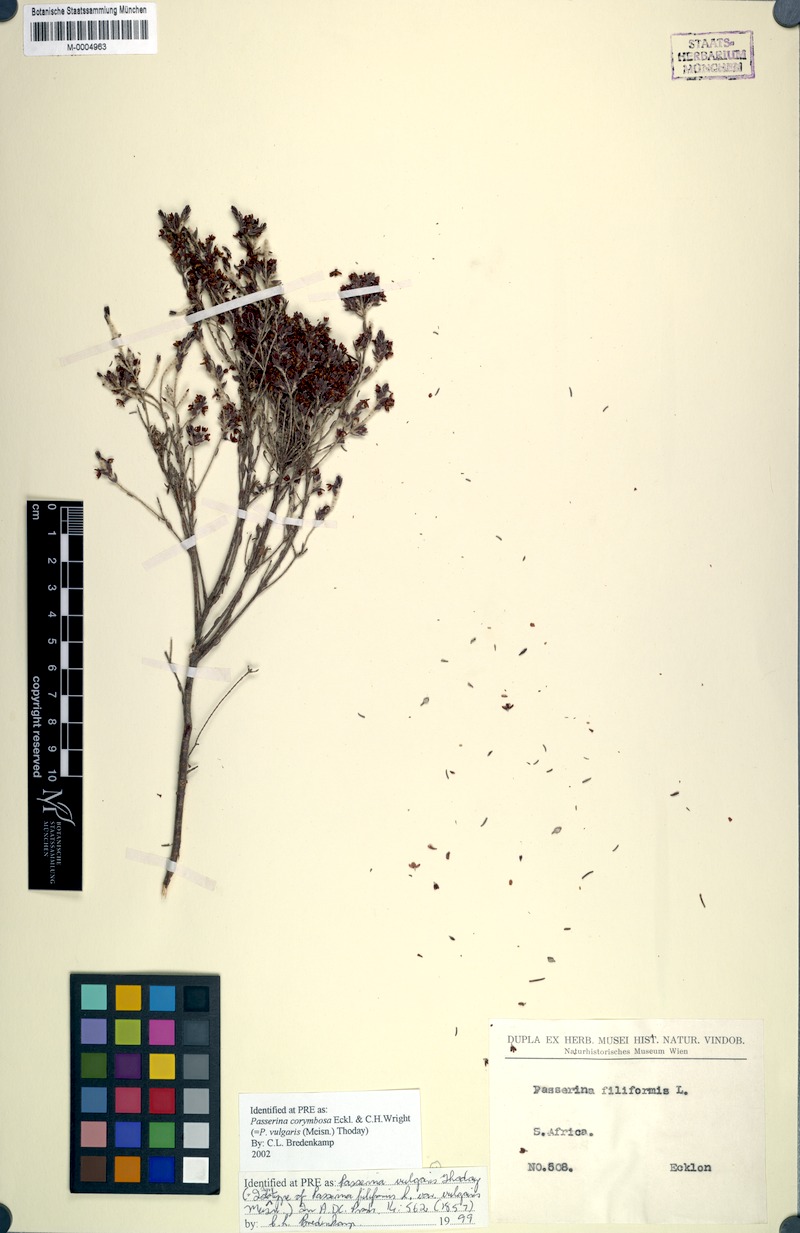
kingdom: Plantae
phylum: Tracheophyta
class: Magnoliopsida
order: Malvales
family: Thymelaeaceae
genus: Passerina
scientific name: Passerina corymbosa
